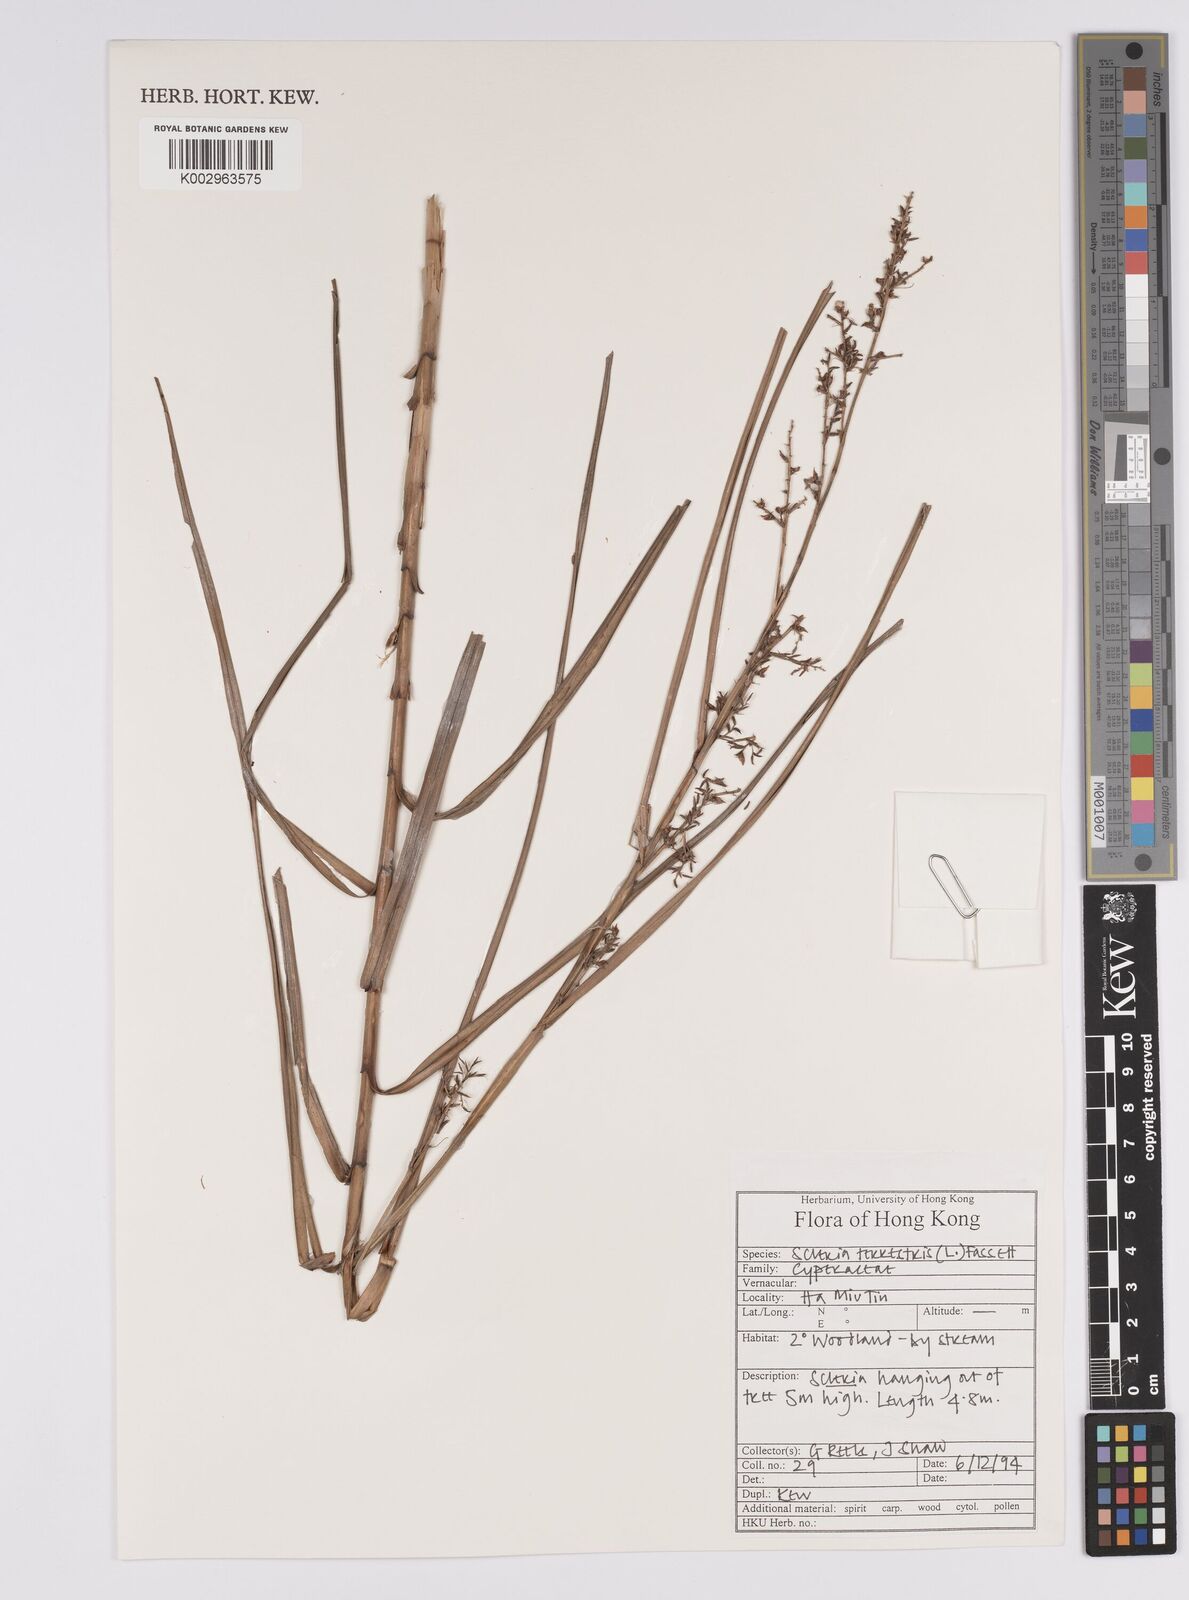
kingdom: Plantae
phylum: Tracheophyta
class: Liliopsida
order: Poales
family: Cyperaceae
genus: Scleria
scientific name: Scleria terrestris
